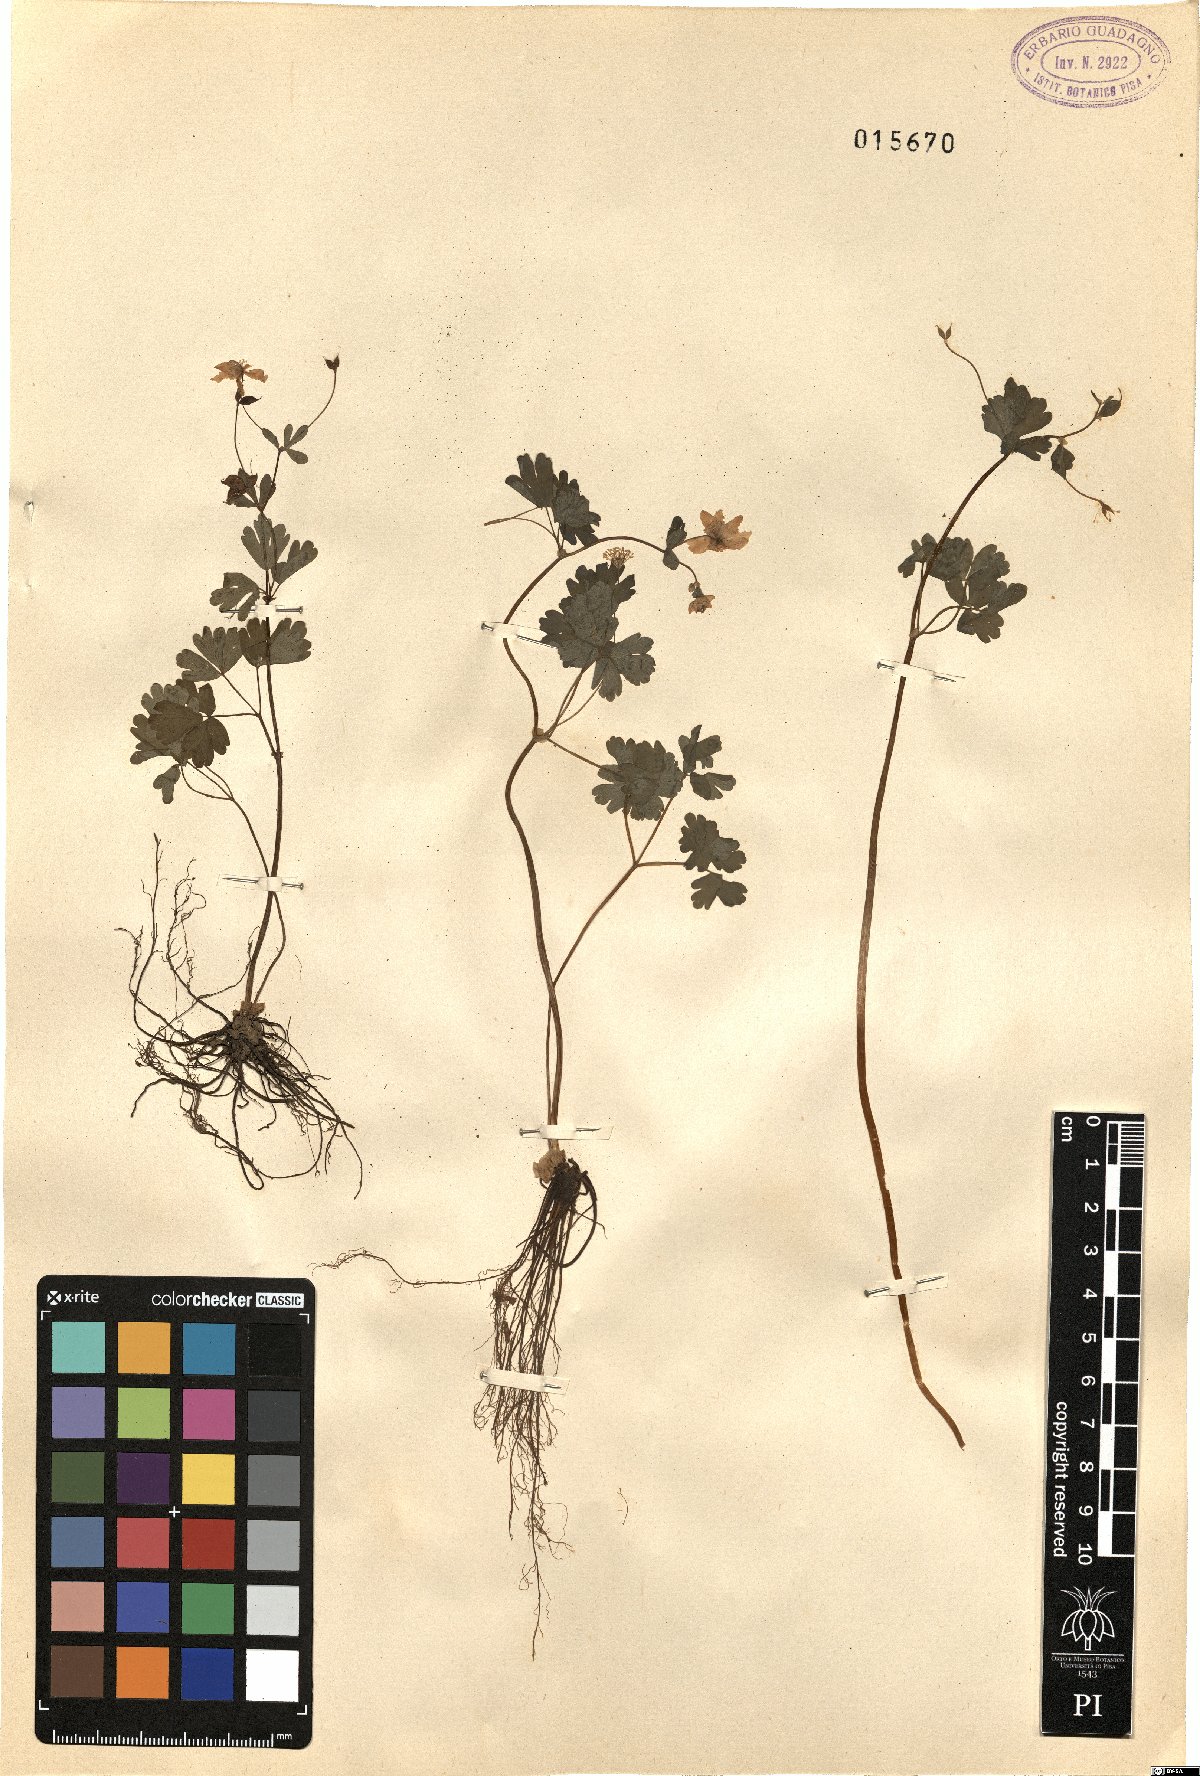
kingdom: Plantae
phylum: Tracheophyta
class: Magnoliopsida
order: Ranunculales
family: Ranunculaceae
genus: Isopyrum
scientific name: Isopyrum
